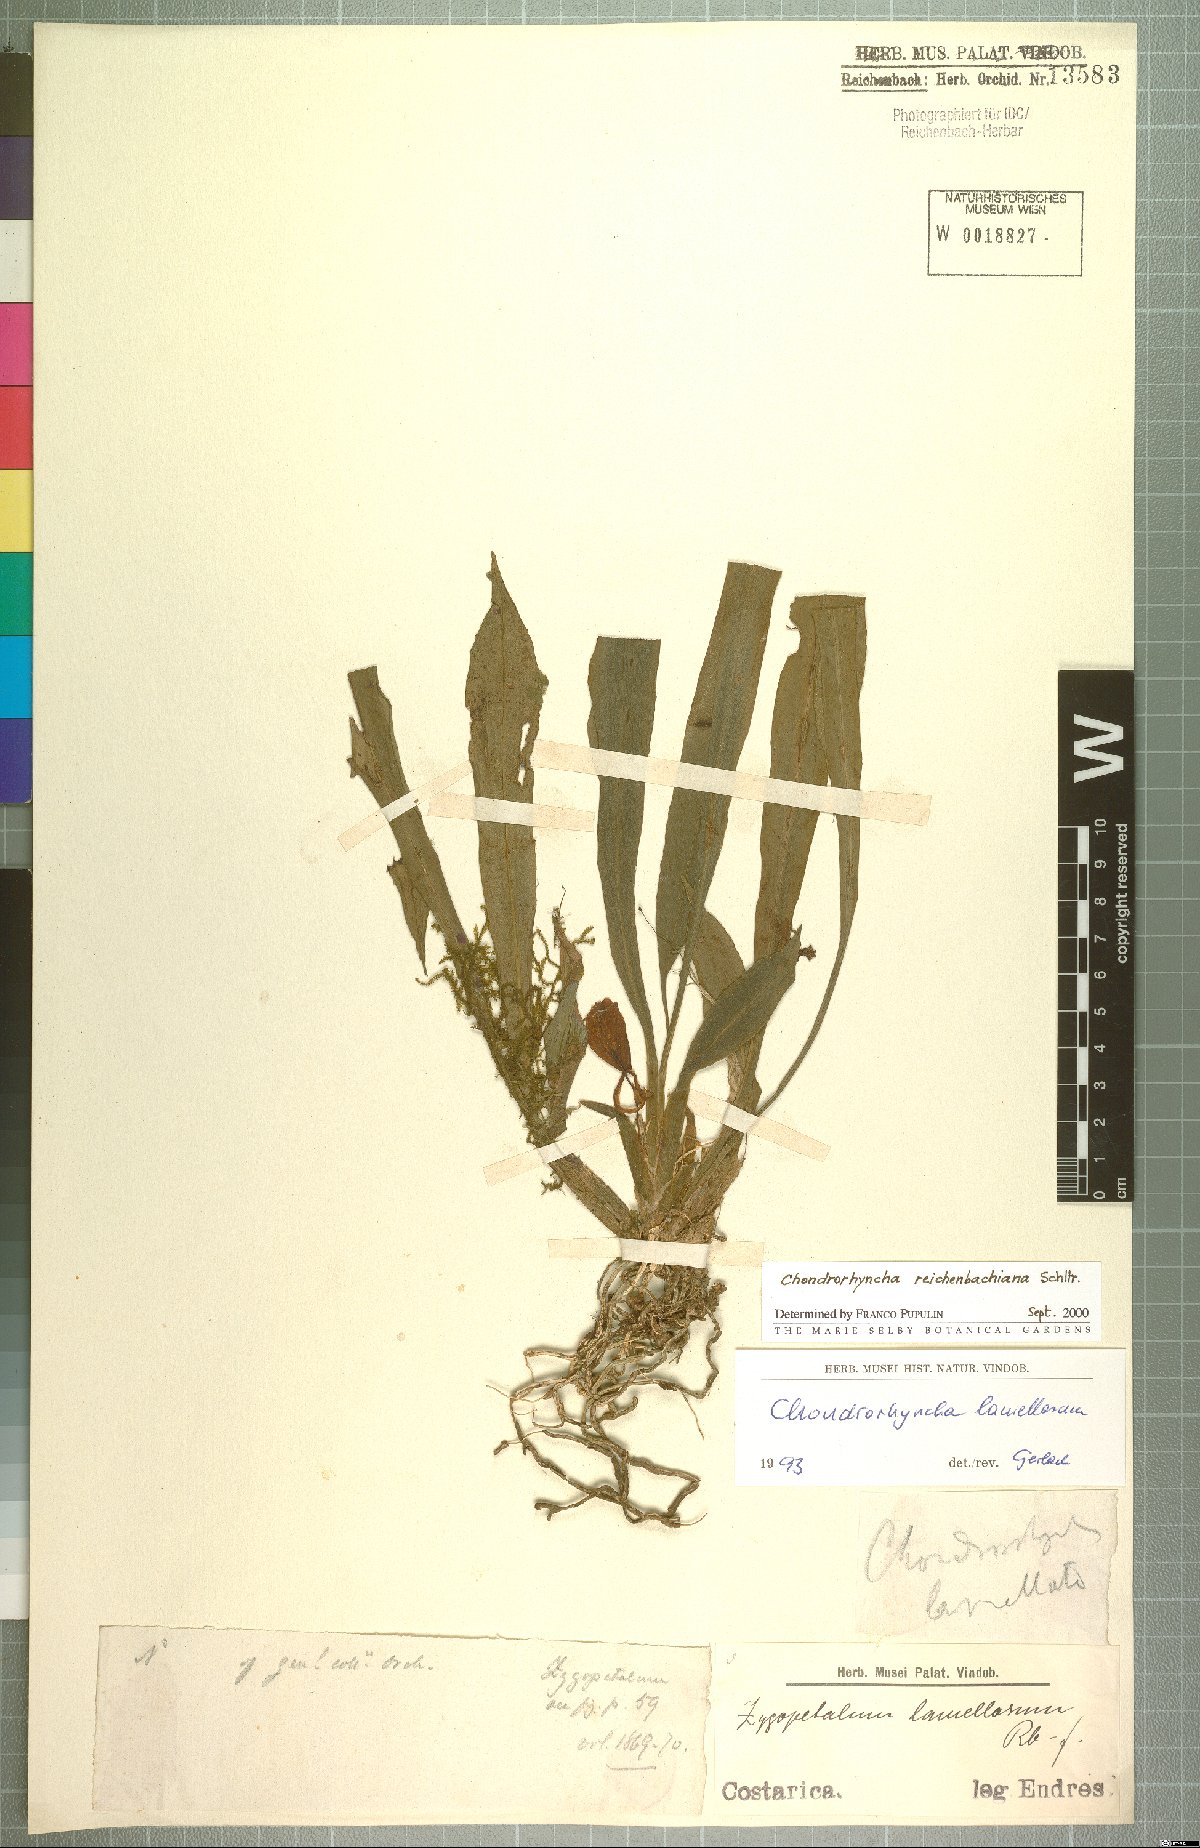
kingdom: Plantae
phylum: Tracheophyta
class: Liliopsida
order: Asparagales
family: Orchidaceae
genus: Benzingia
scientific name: Benzingia reichenbachiana
